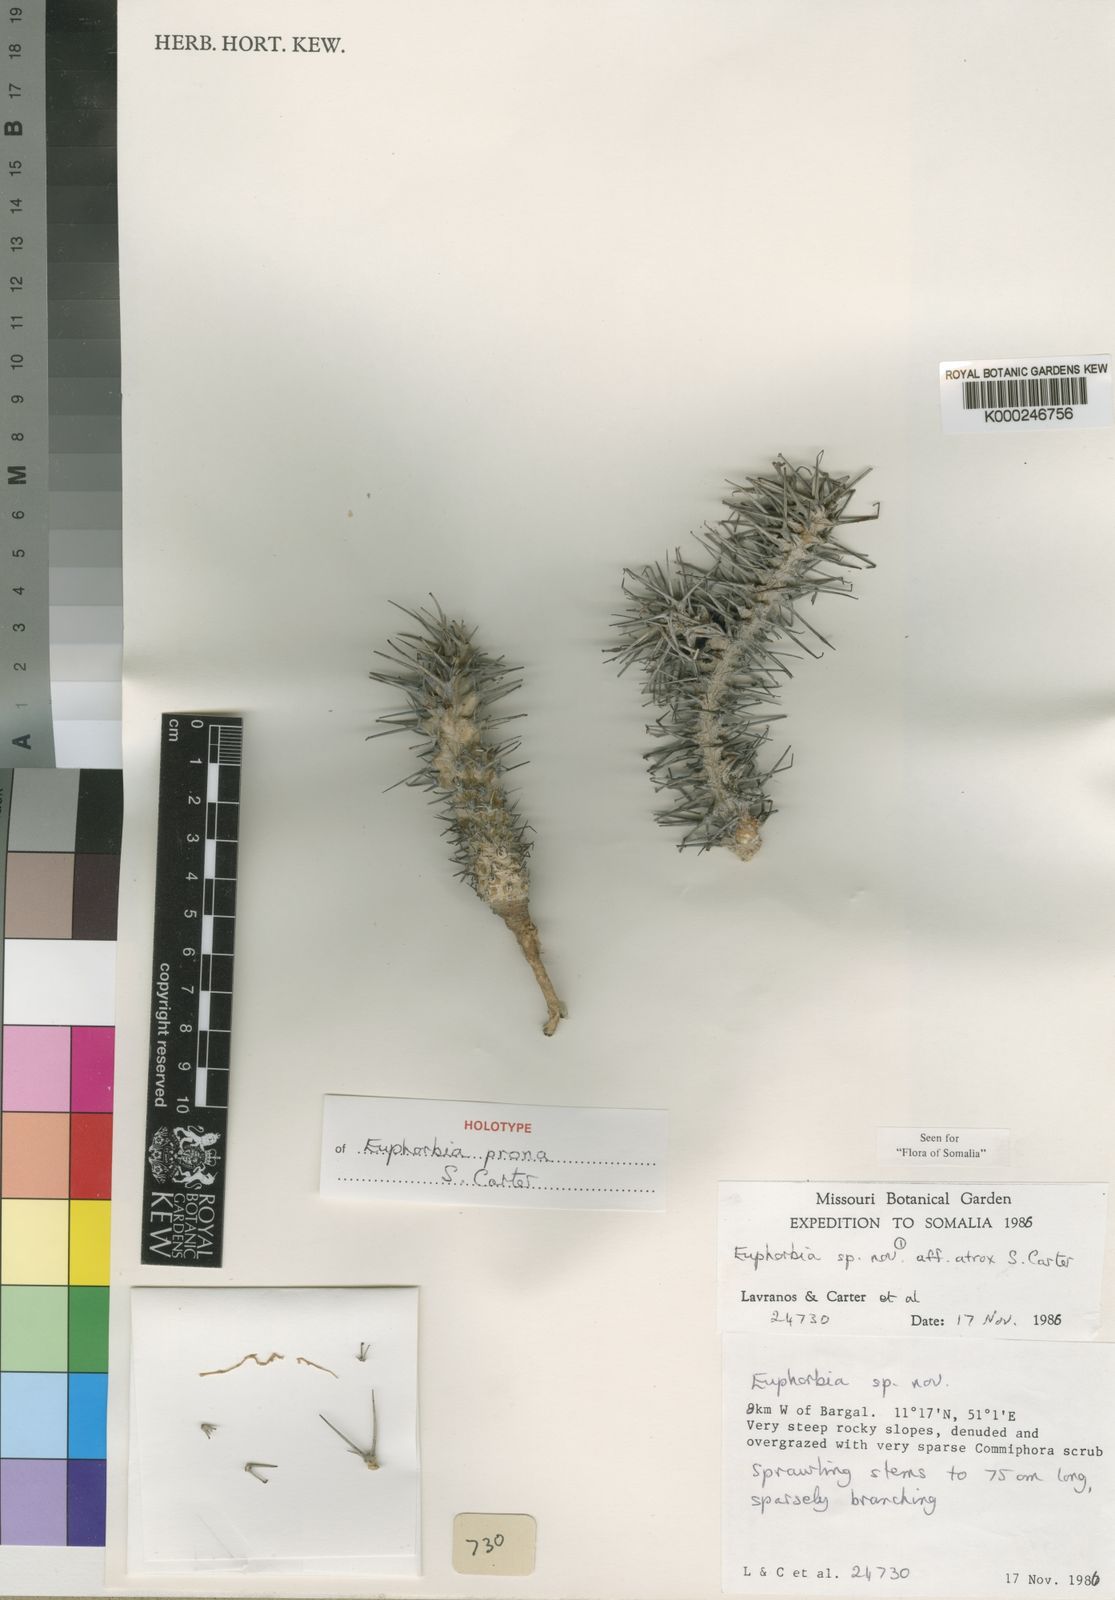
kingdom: Plantae
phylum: Tracheophyta
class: Magnoliopsida
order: Malpighiales
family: Euphorbiaceae
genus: Euphorbia
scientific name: Euphorbia prona
